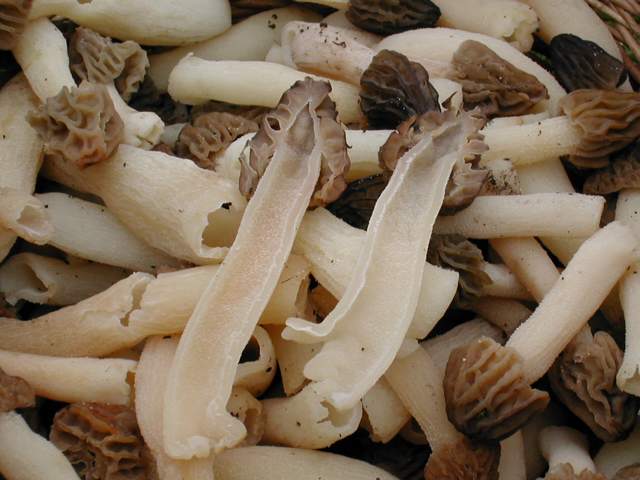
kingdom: Fungi
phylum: Ascomycota
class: Pezizomycetes
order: Pezizales
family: Morchellaceae
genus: Morchella
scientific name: Morchella semilibera
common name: hætte-morkel
